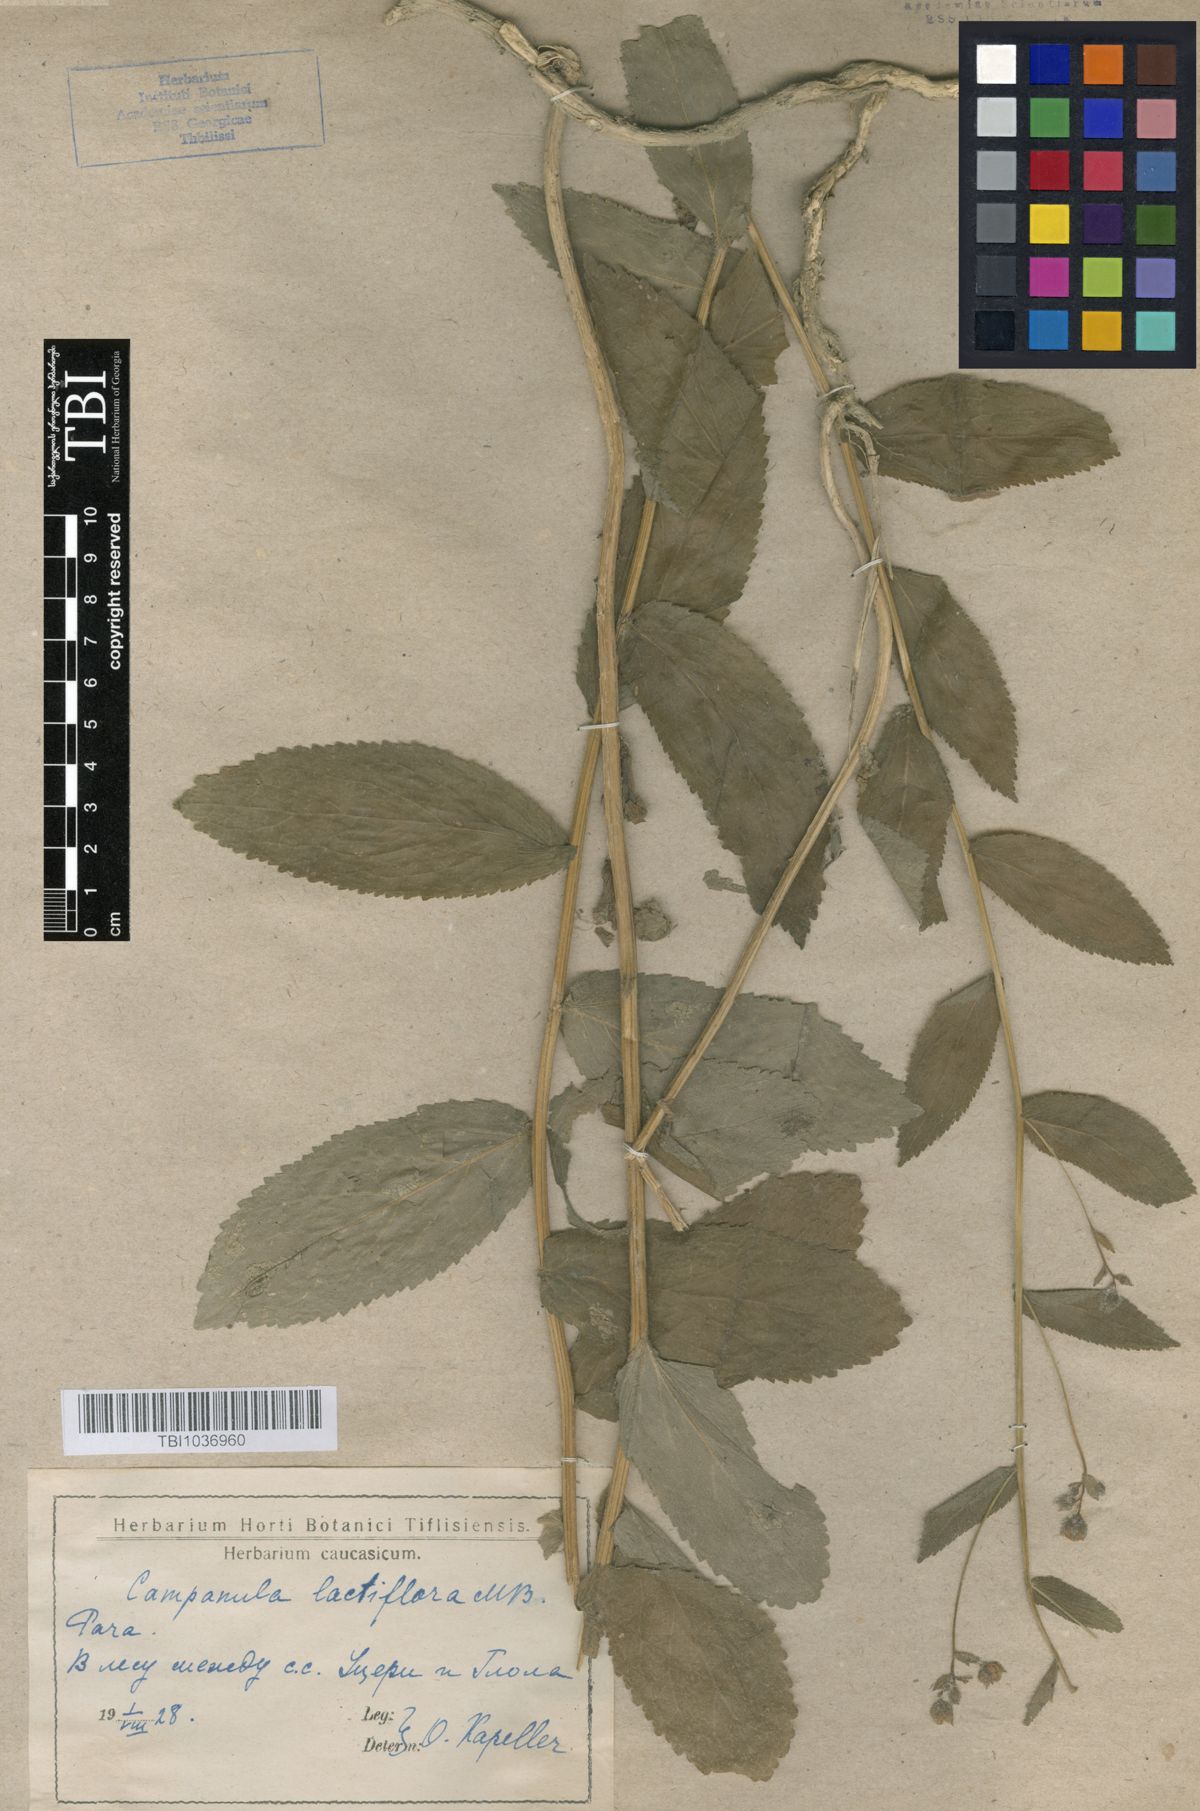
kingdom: Plantae
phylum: Tracheophyta
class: Magnoliopsida
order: Asterales
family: Campanulaceae
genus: Campanula
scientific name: Campanula lactiflora
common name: Milky bellflower
